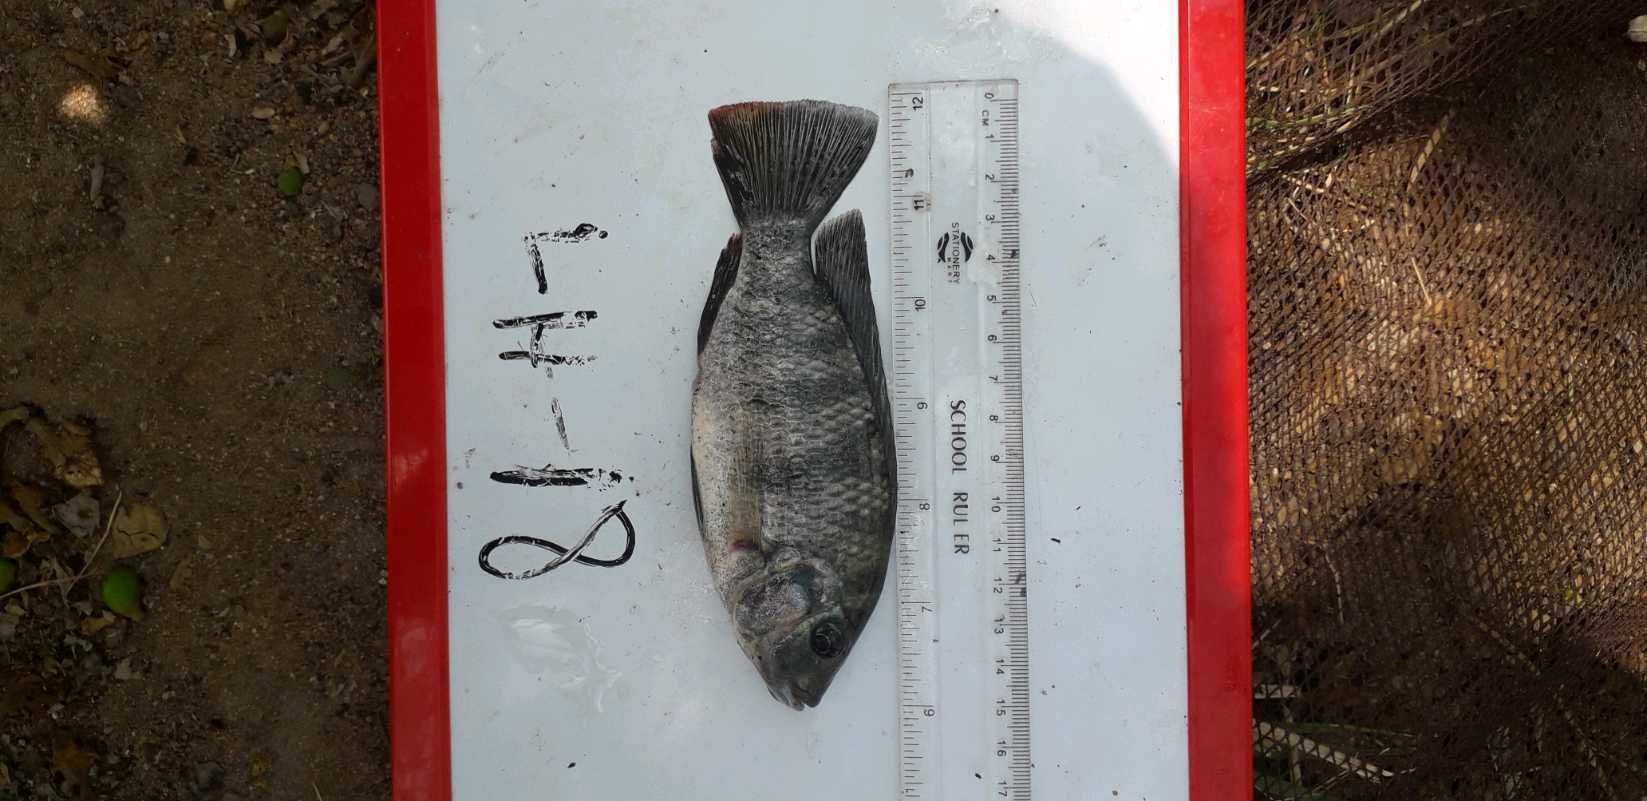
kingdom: Animalia
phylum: Chordata
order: Perciformes
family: Cichlidae
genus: Coptodon
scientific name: Coptodon rendalli
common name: Redbreast tilapia
